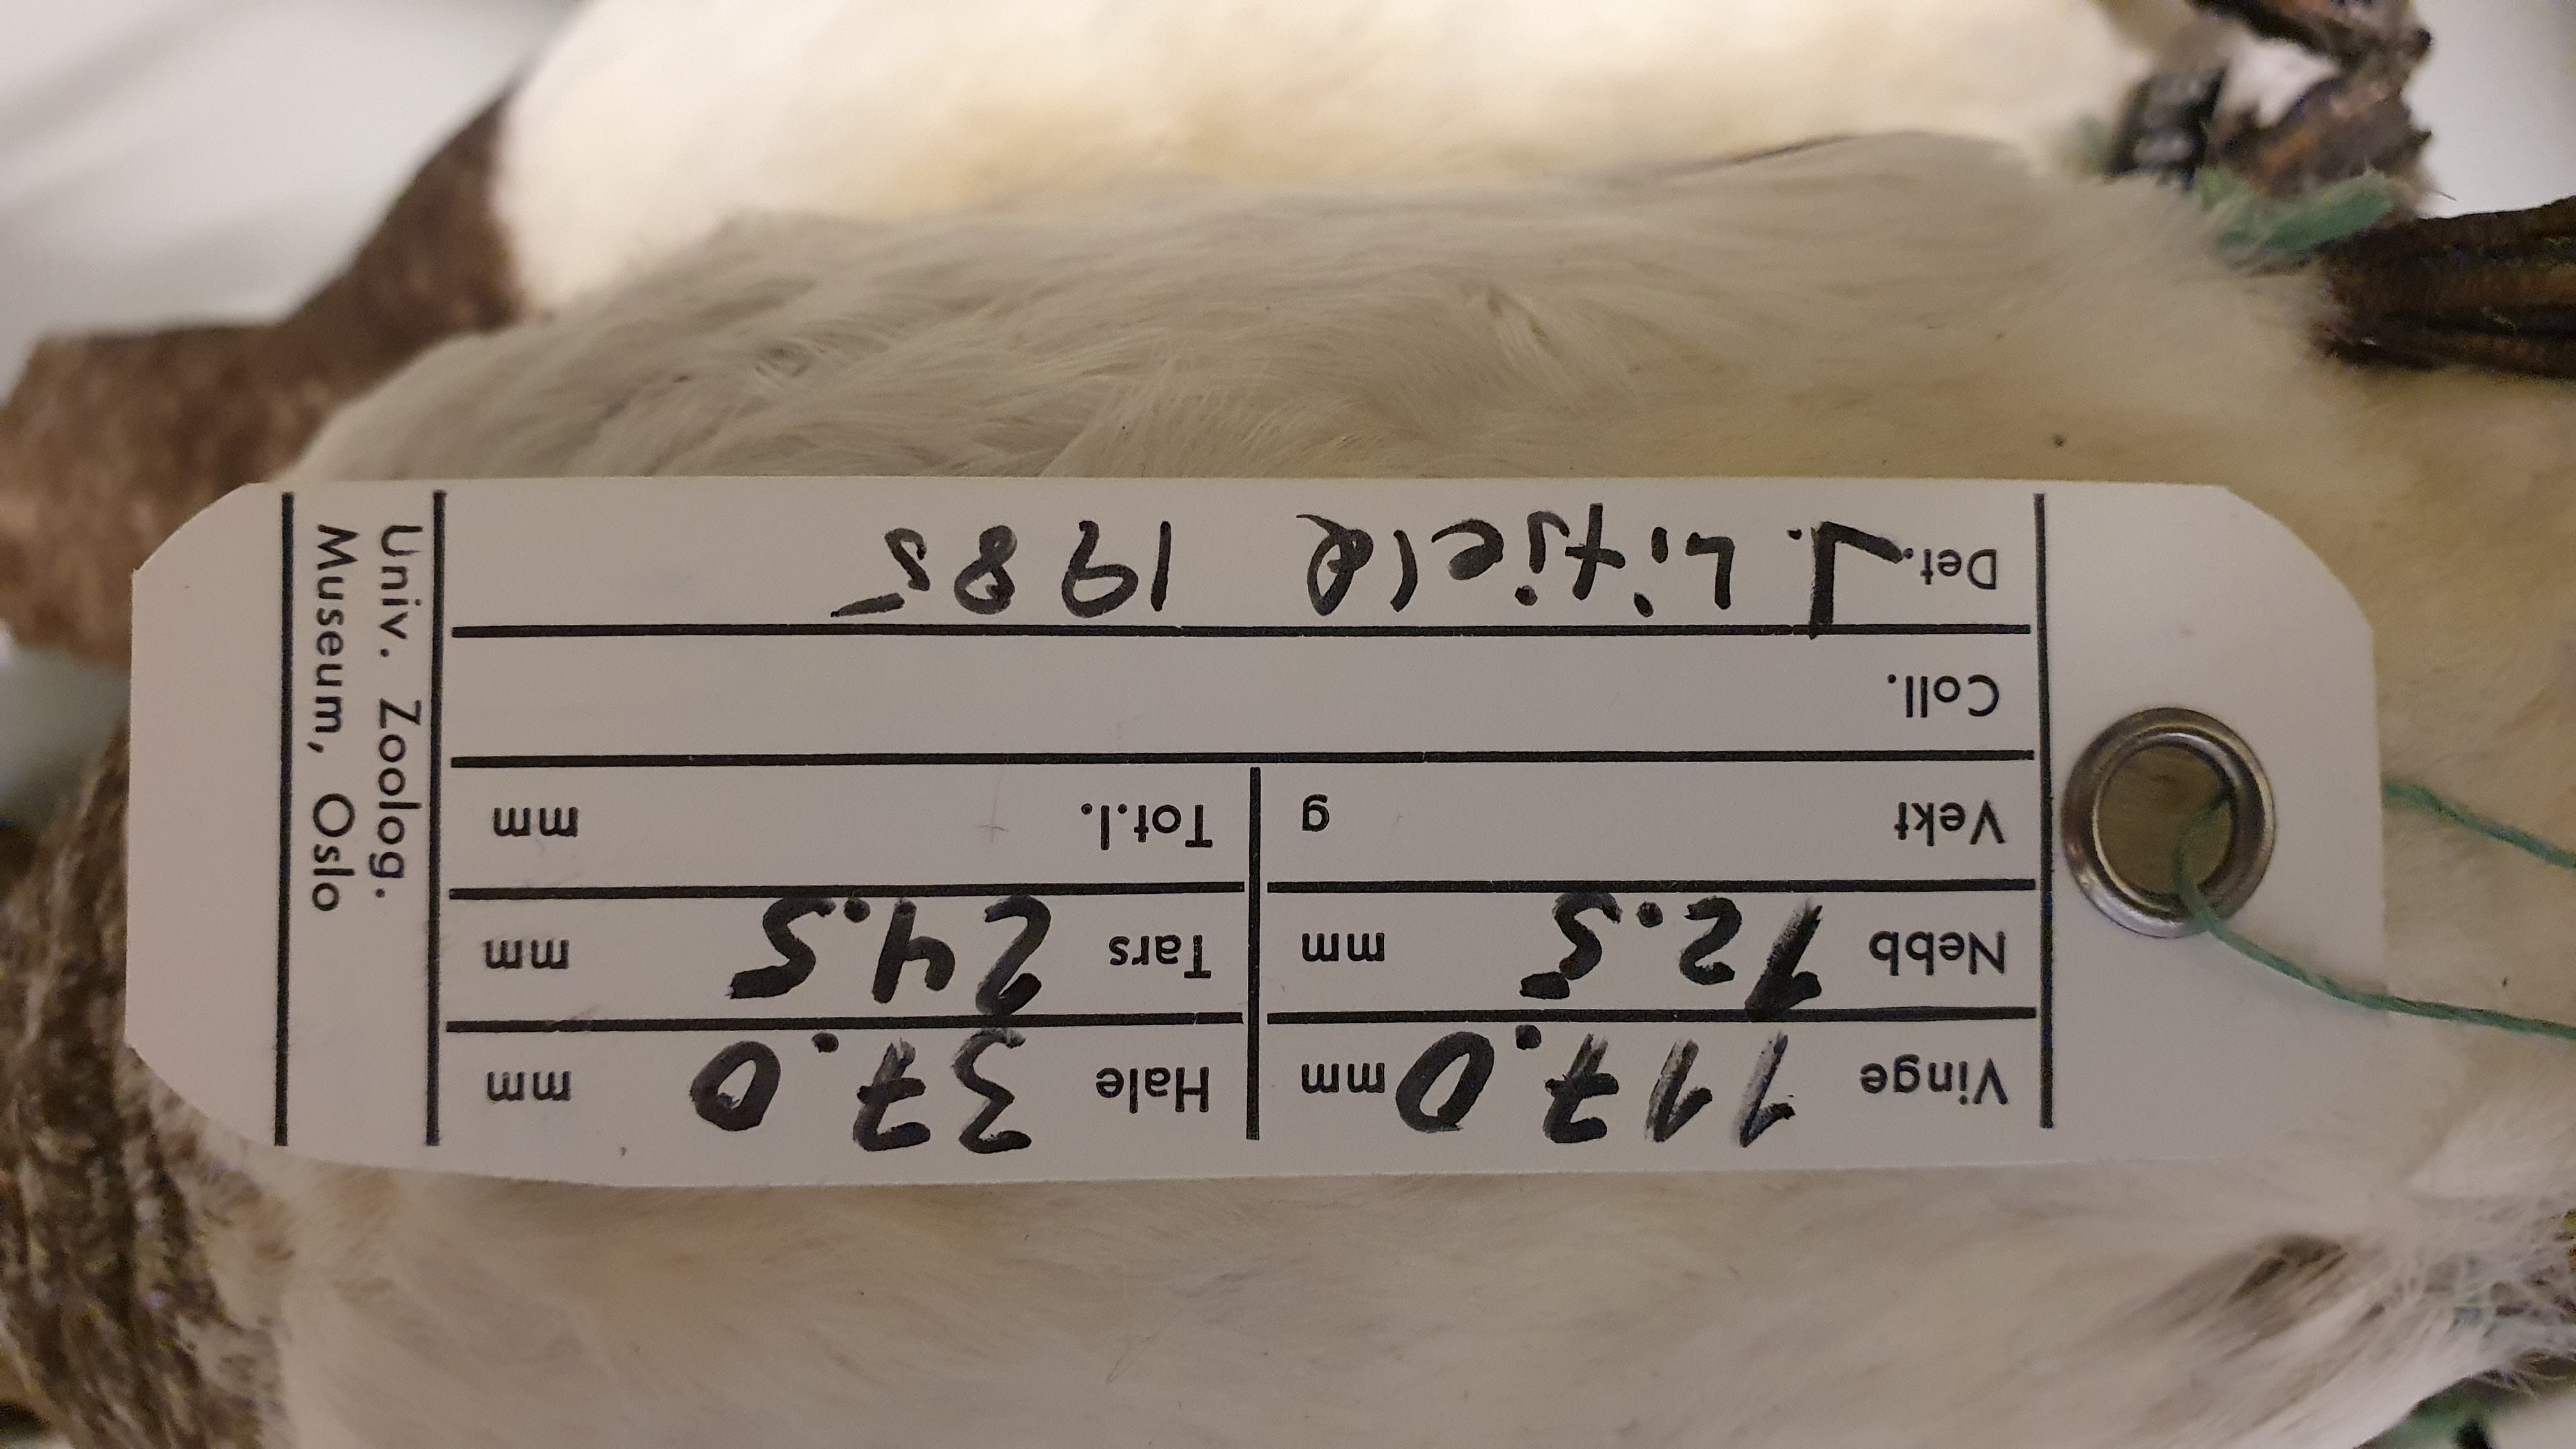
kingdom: Animalia
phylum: Chordata
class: Aves
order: Charadriiformes
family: Alcidae
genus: Alle
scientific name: Alle alle
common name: Little auk
